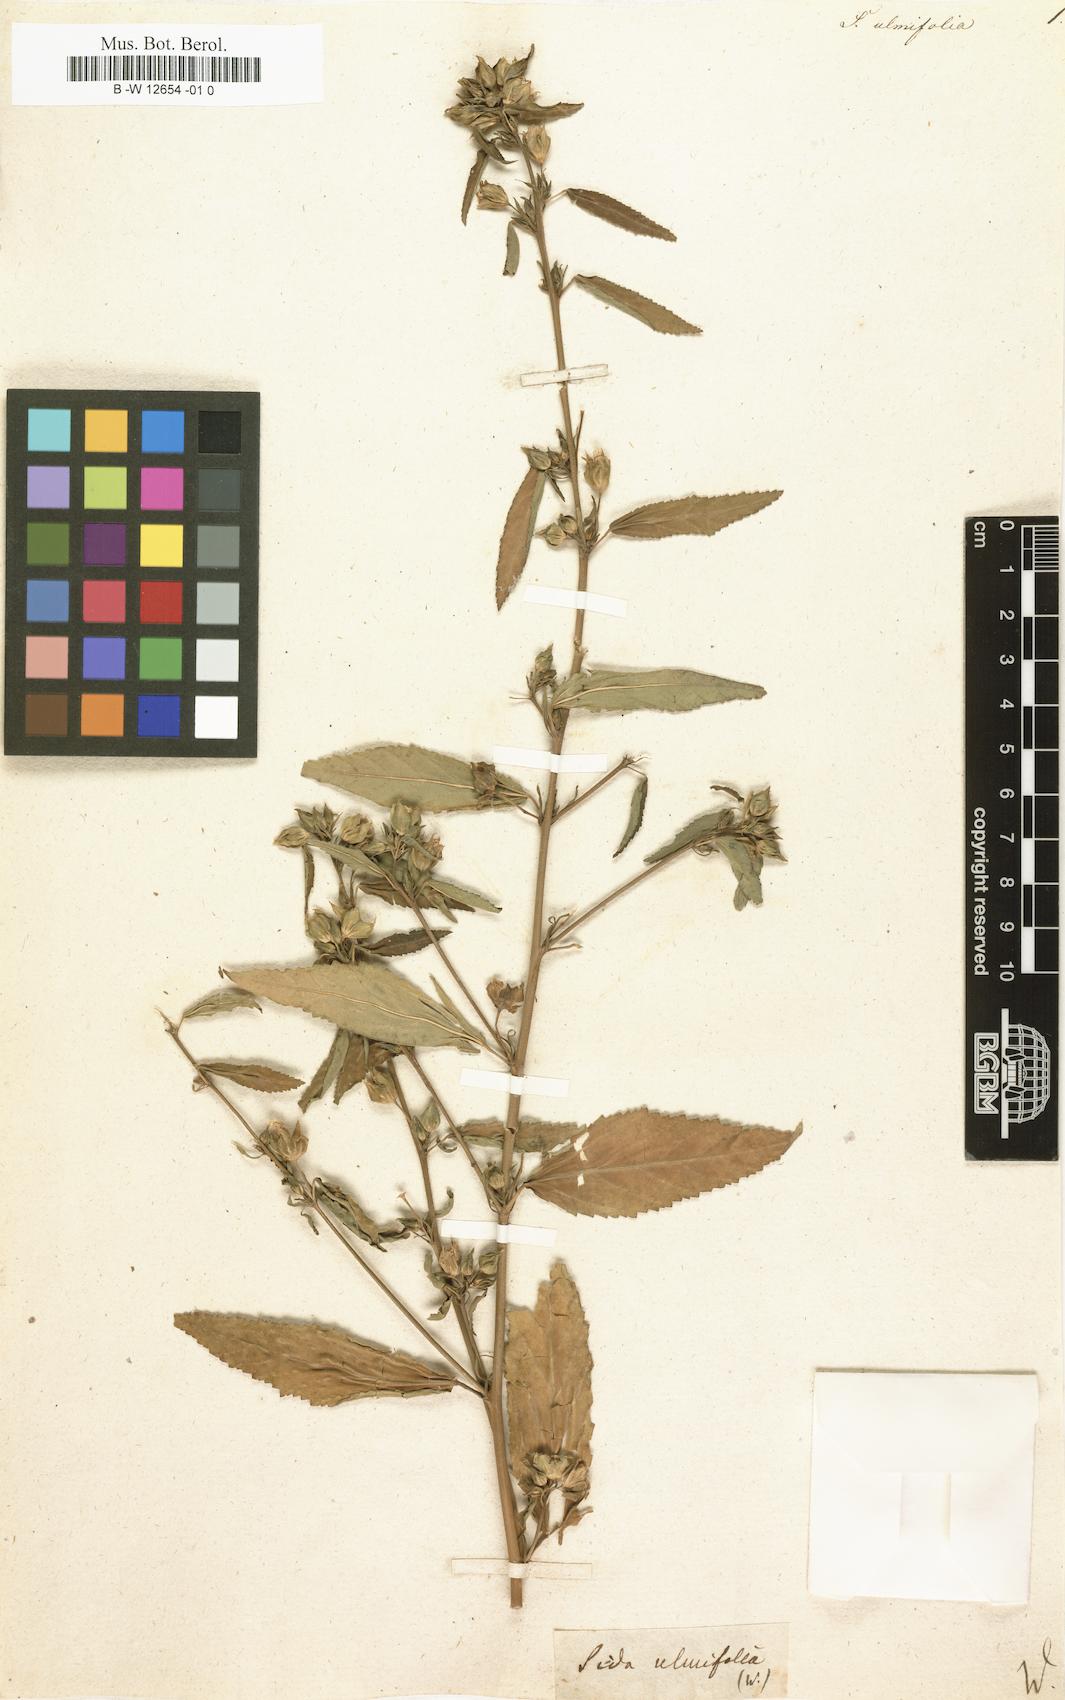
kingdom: Plantae
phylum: Tracheophyta
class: Magnoliopsida
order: Malvales
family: Malvaceae
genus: Sida
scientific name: Sida ulmifolia
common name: Broom weed
